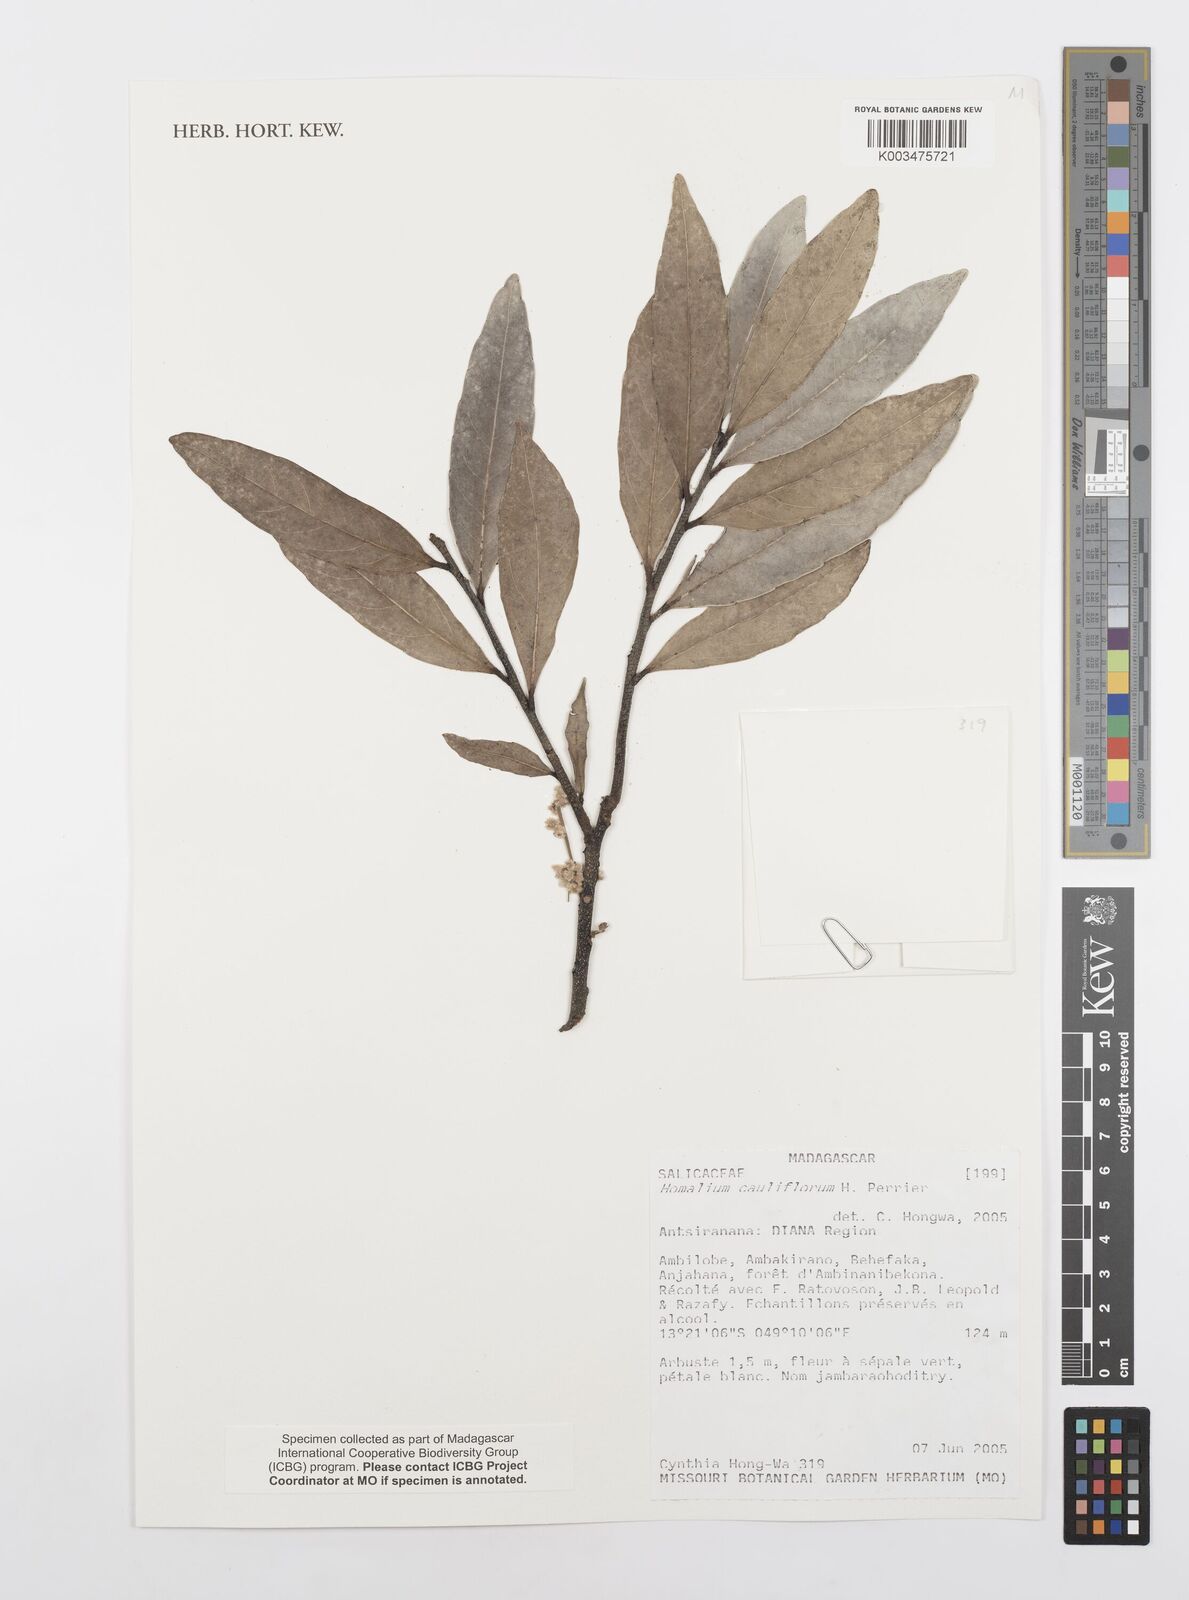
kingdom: Plantae
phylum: Tracheophyta
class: Magnoliopsida
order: Malpighiales
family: Salicaceae
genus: Homalium
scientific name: Homalium cauliflorum
